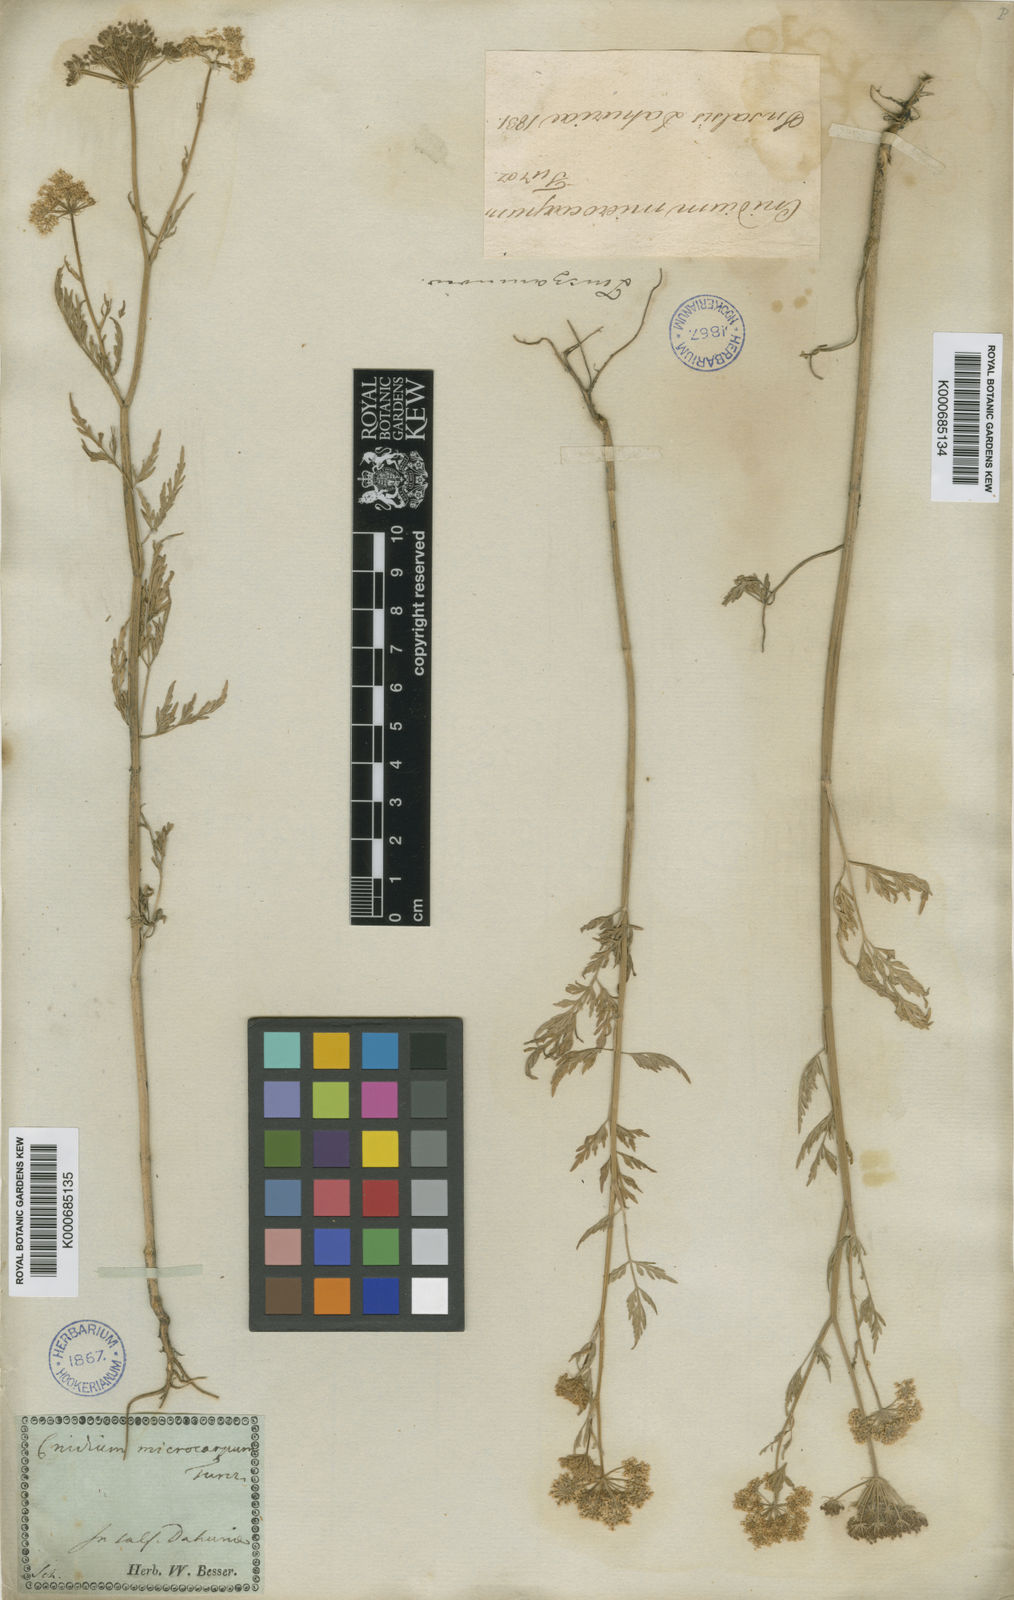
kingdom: Plantae
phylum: Tracheophyta
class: Magnoliopsida
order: Apiales
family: Apiaceae
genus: Cnidium
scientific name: Cnidium
